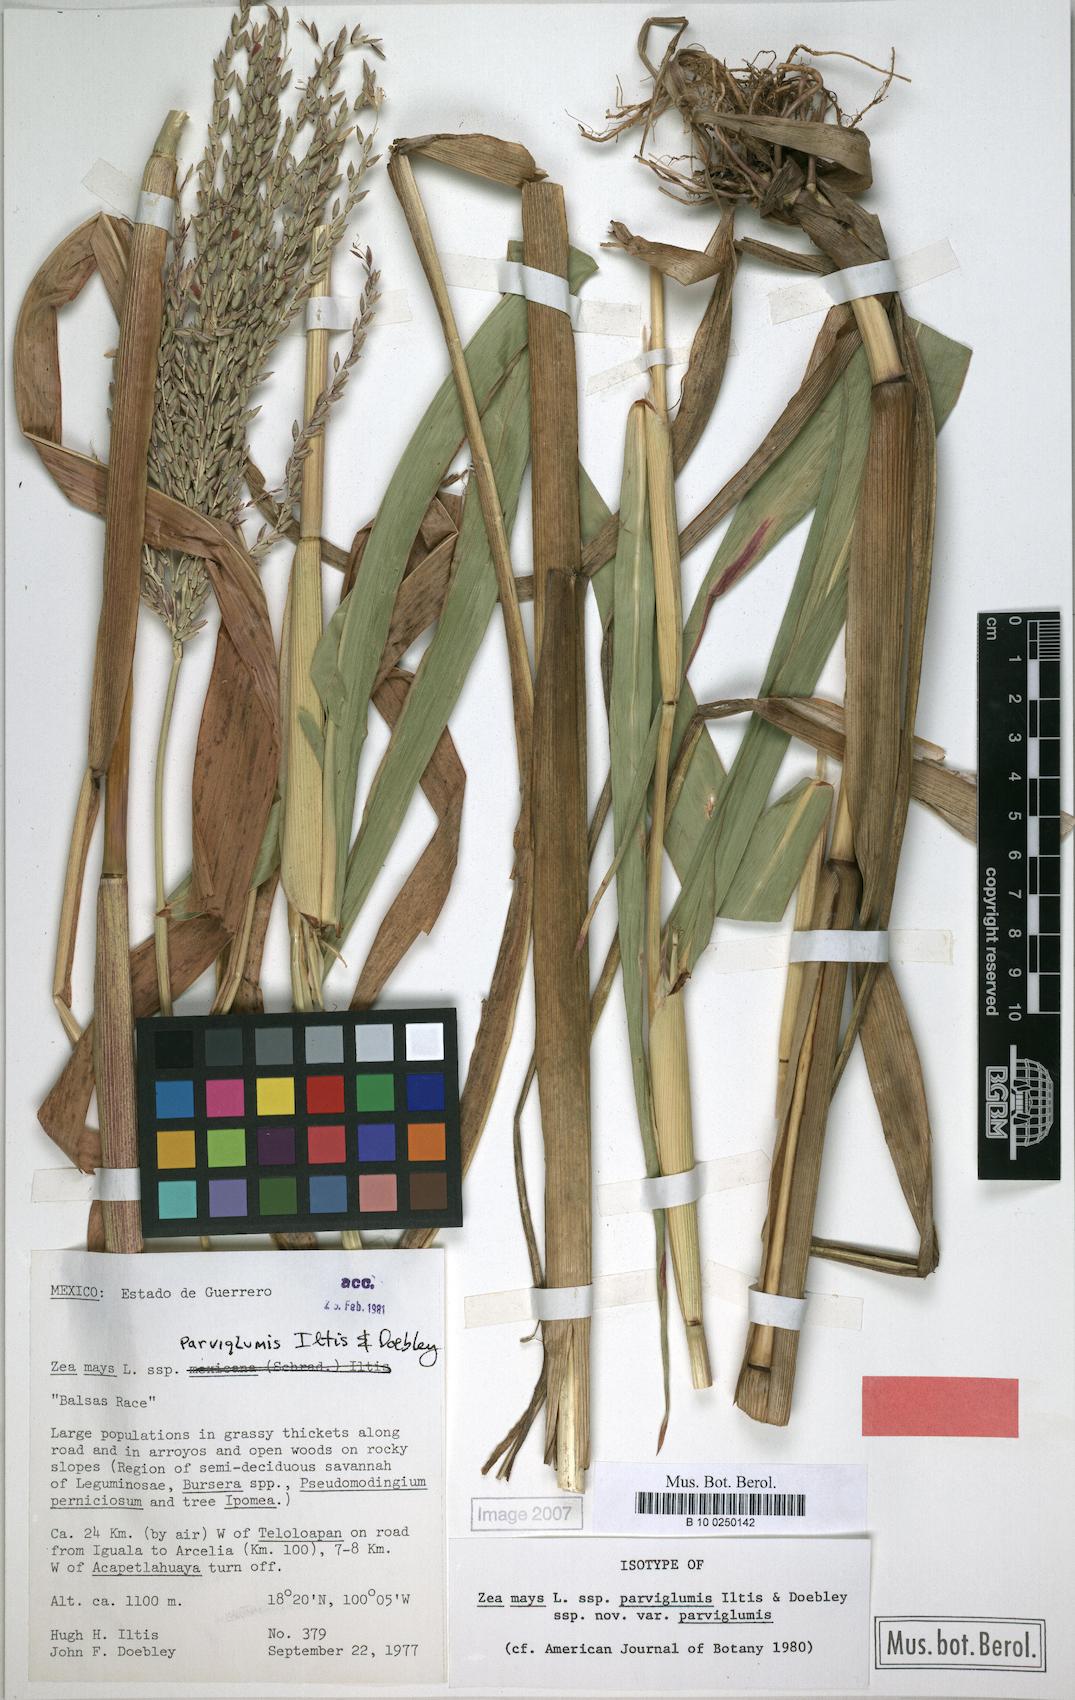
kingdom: Plantae
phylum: Tracheophyta
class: Liliopsida
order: Poales
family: Poaceae
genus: Zea
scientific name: Zea mays
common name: Maize
